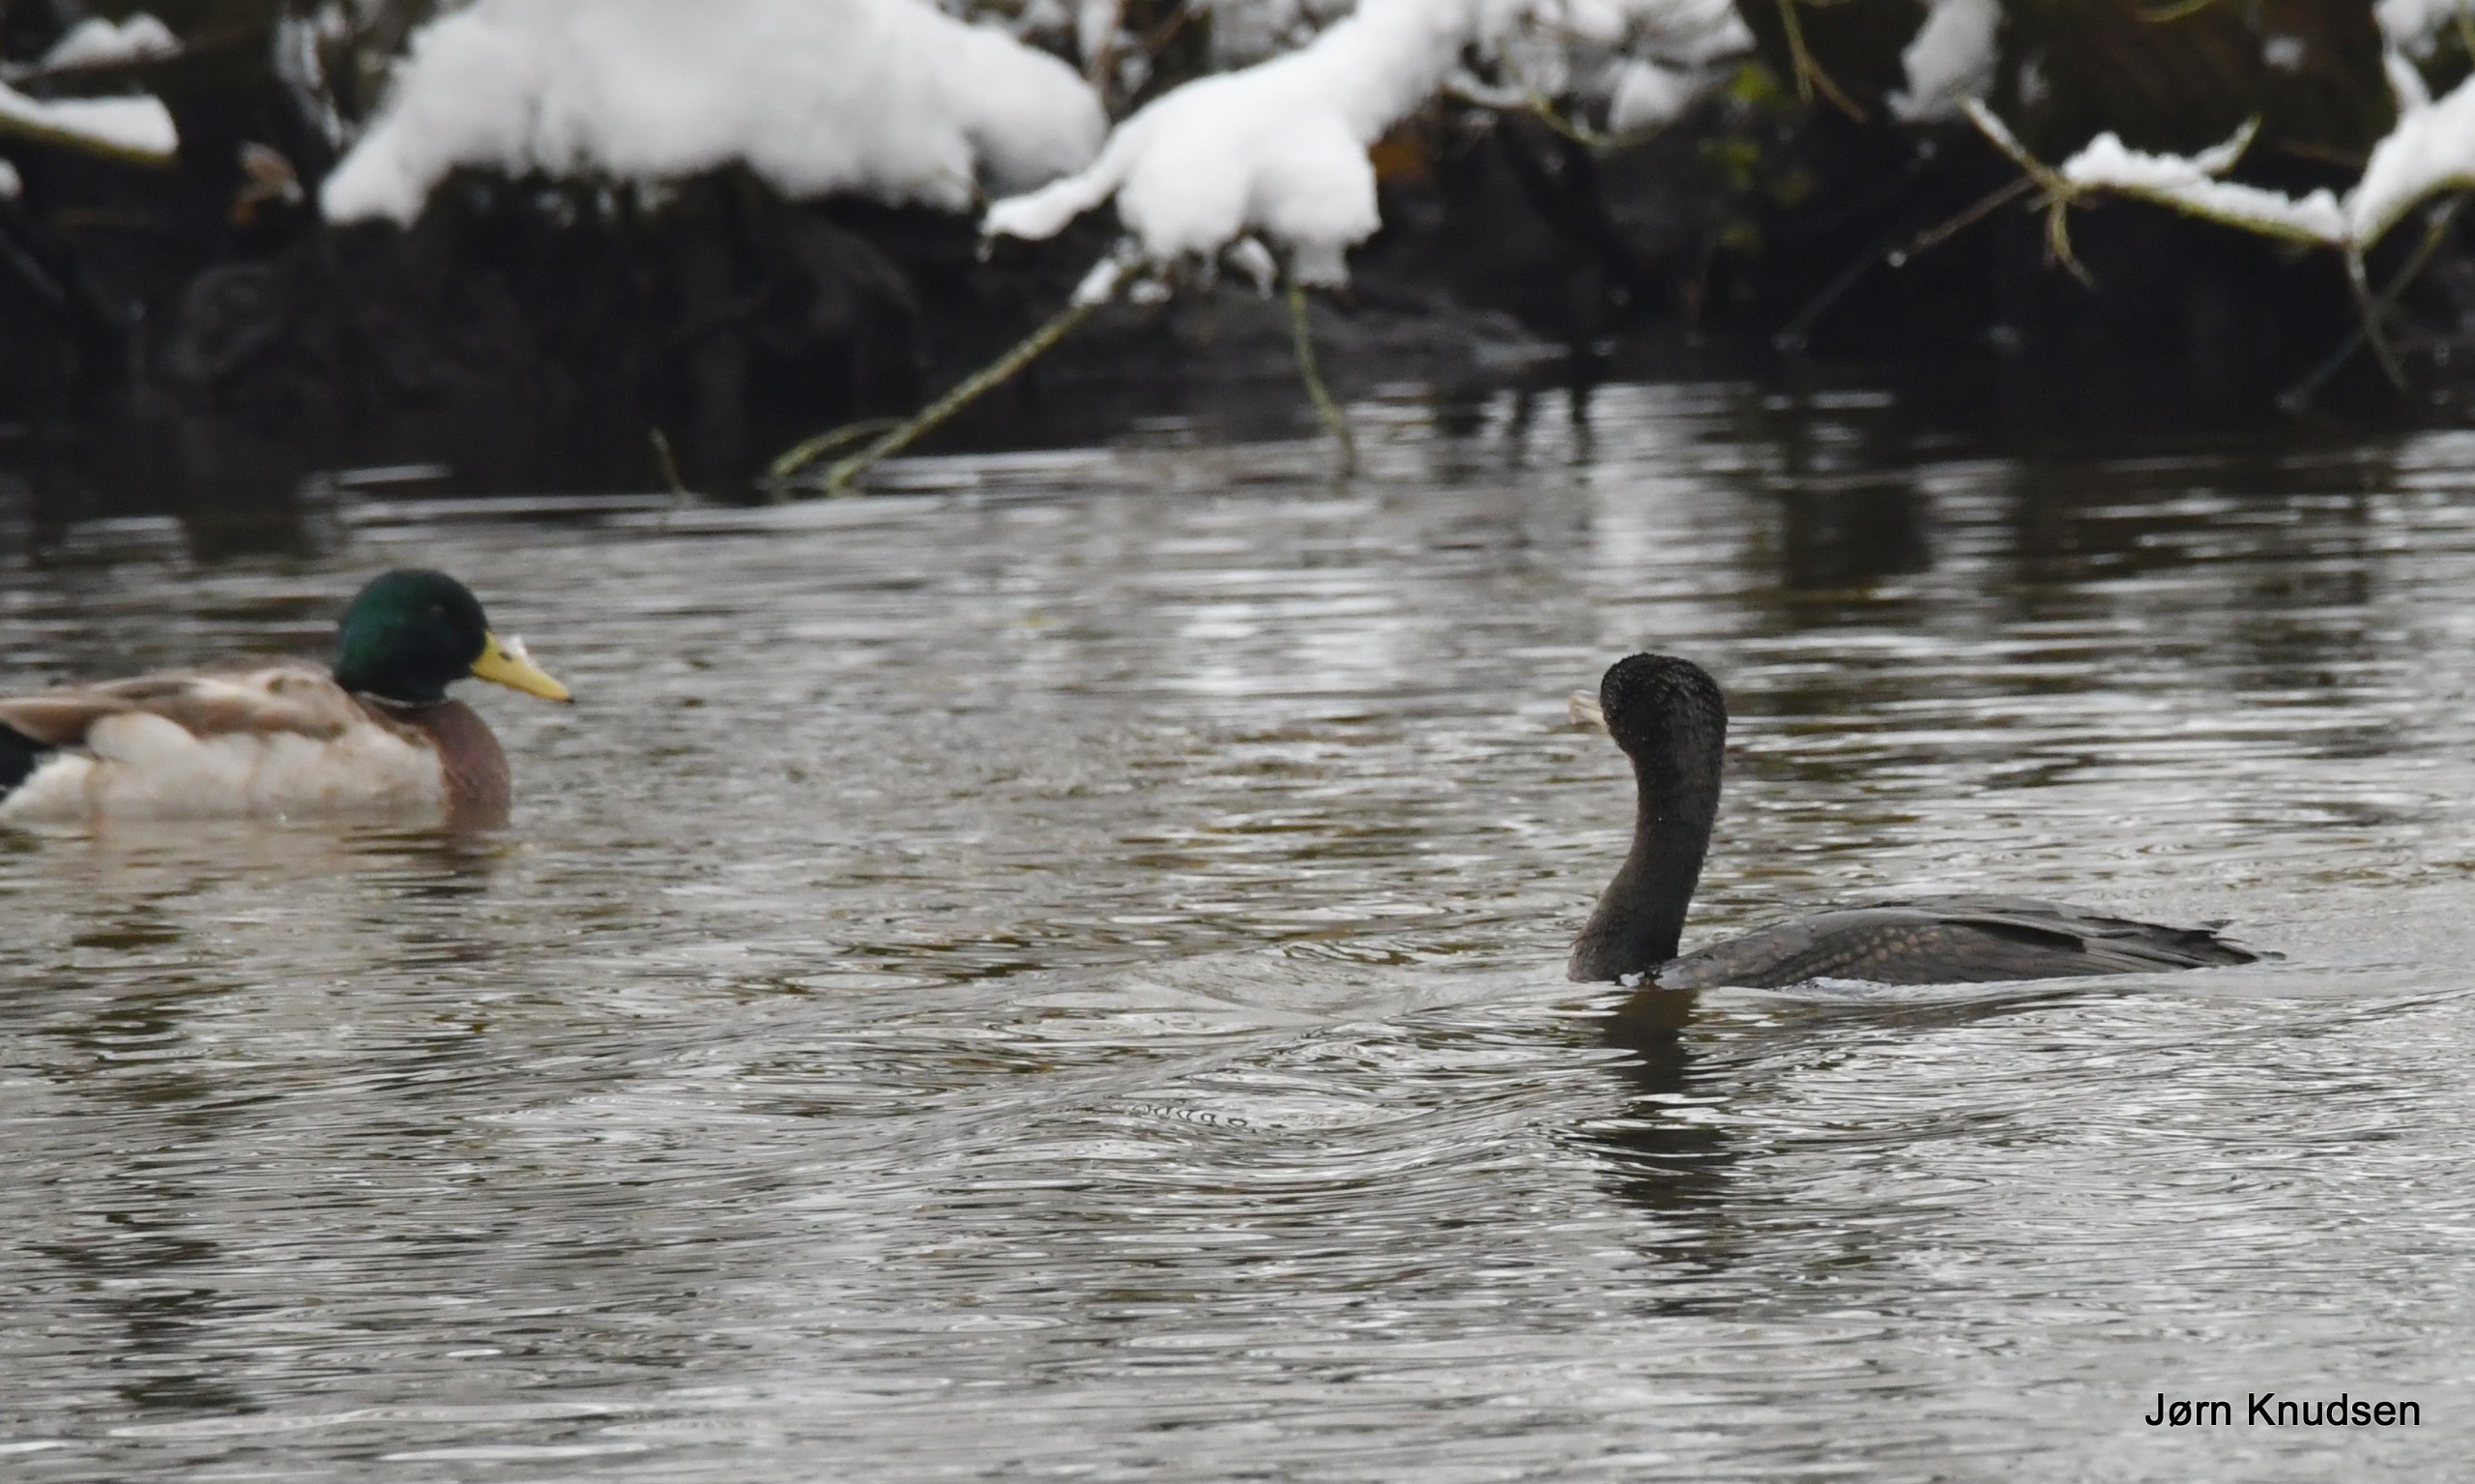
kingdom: Animalia
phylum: Chordata
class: Aves
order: Suliformes
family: Phalacrocoracidae
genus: Phalacrocorax
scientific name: Phalacrocorax carbo
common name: Skarv
